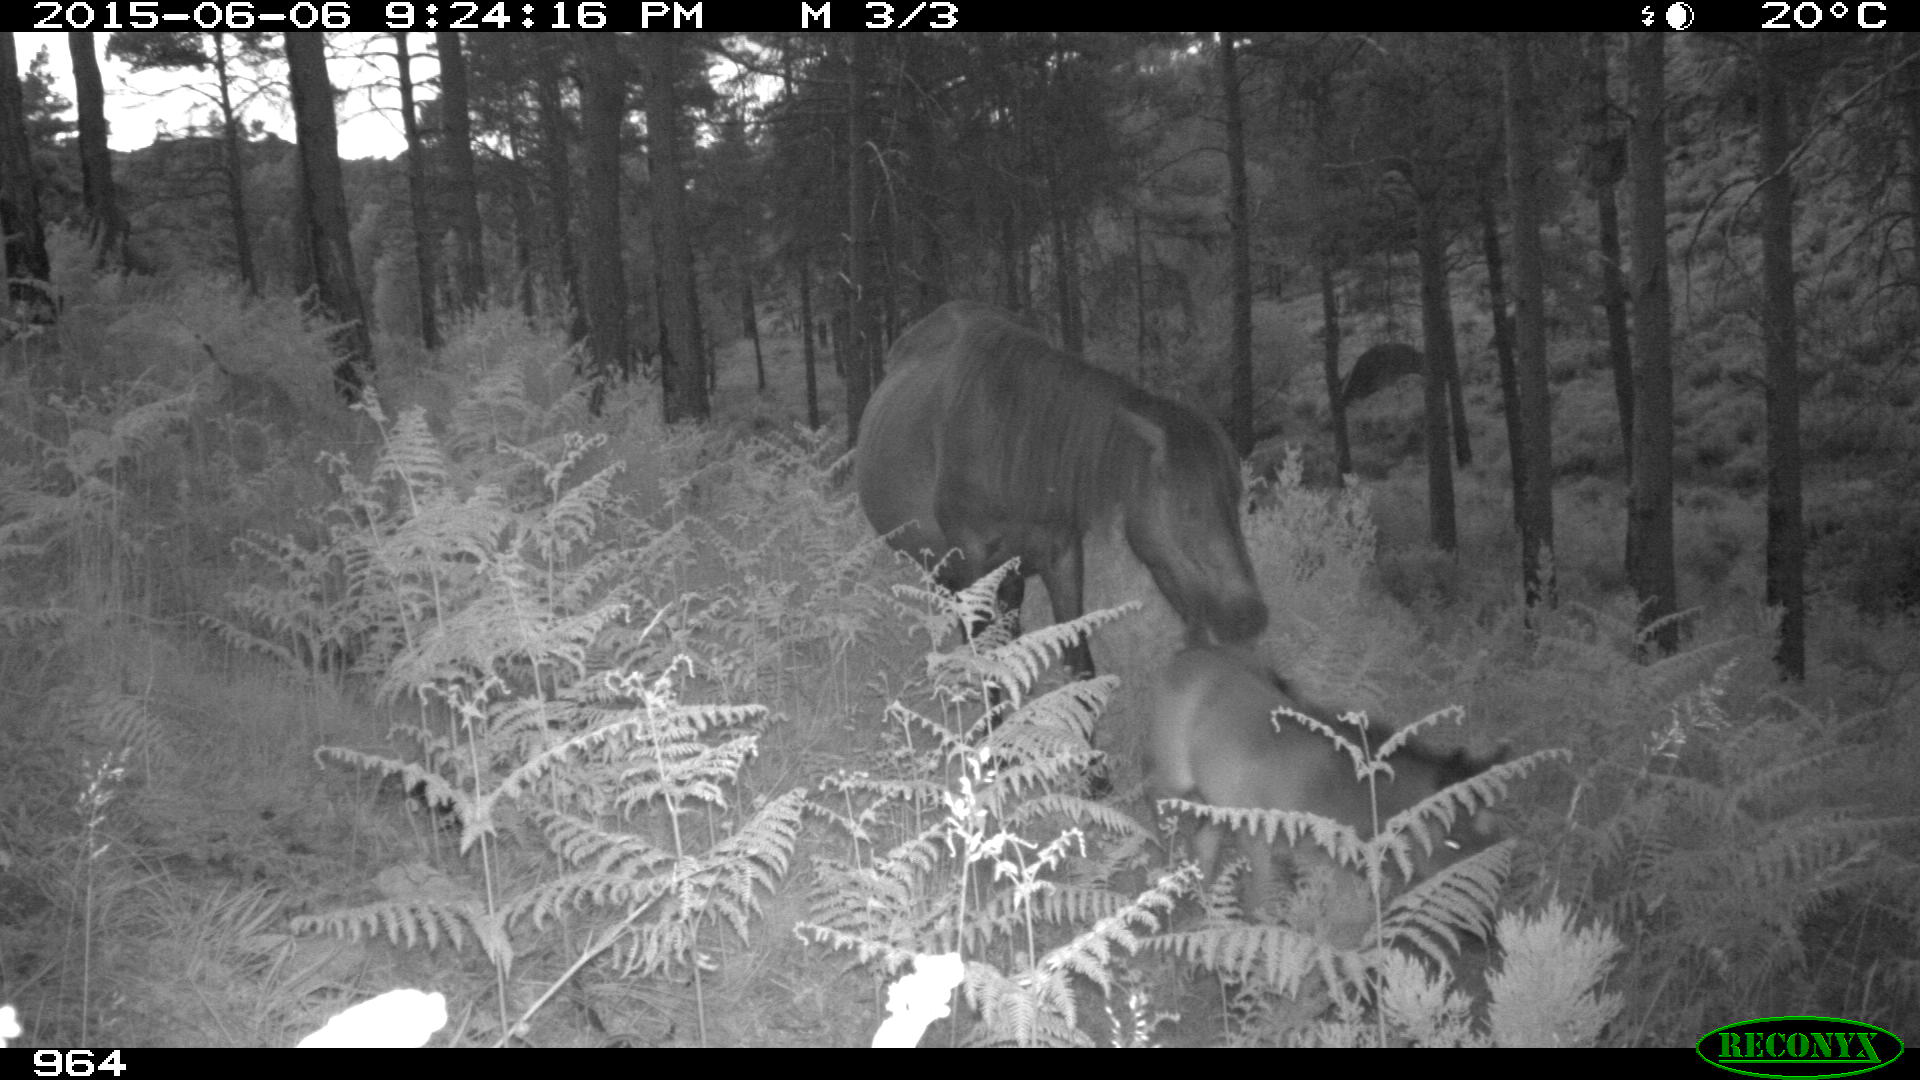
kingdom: Animalia
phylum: Chordata
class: Mammalia
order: Perissodactyla
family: Equidae
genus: Equus
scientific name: Equus caballus
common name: Horse
